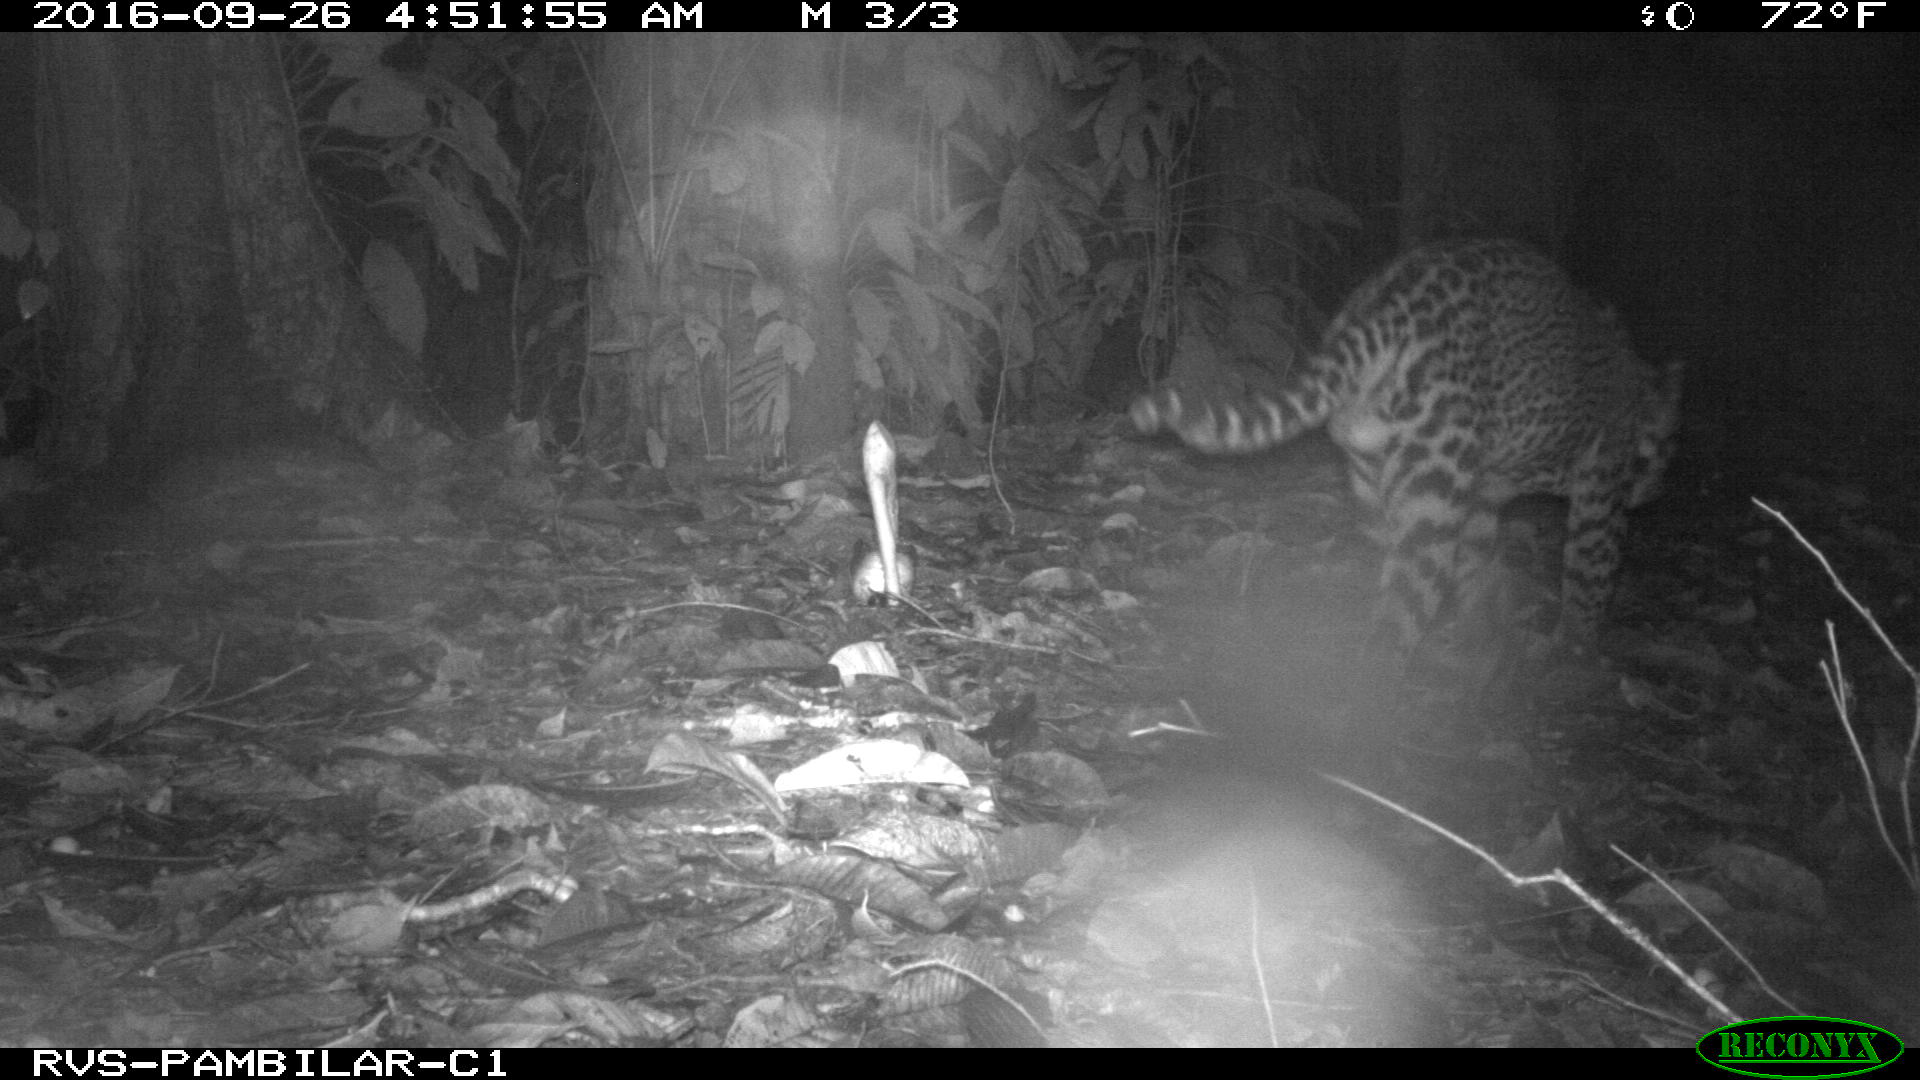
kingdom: Animalia
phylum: Chordata
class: Mammalia
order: Carnivora
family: Felidae
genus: Leopardus
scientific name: Leopardus pardalis
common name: Ocelot
